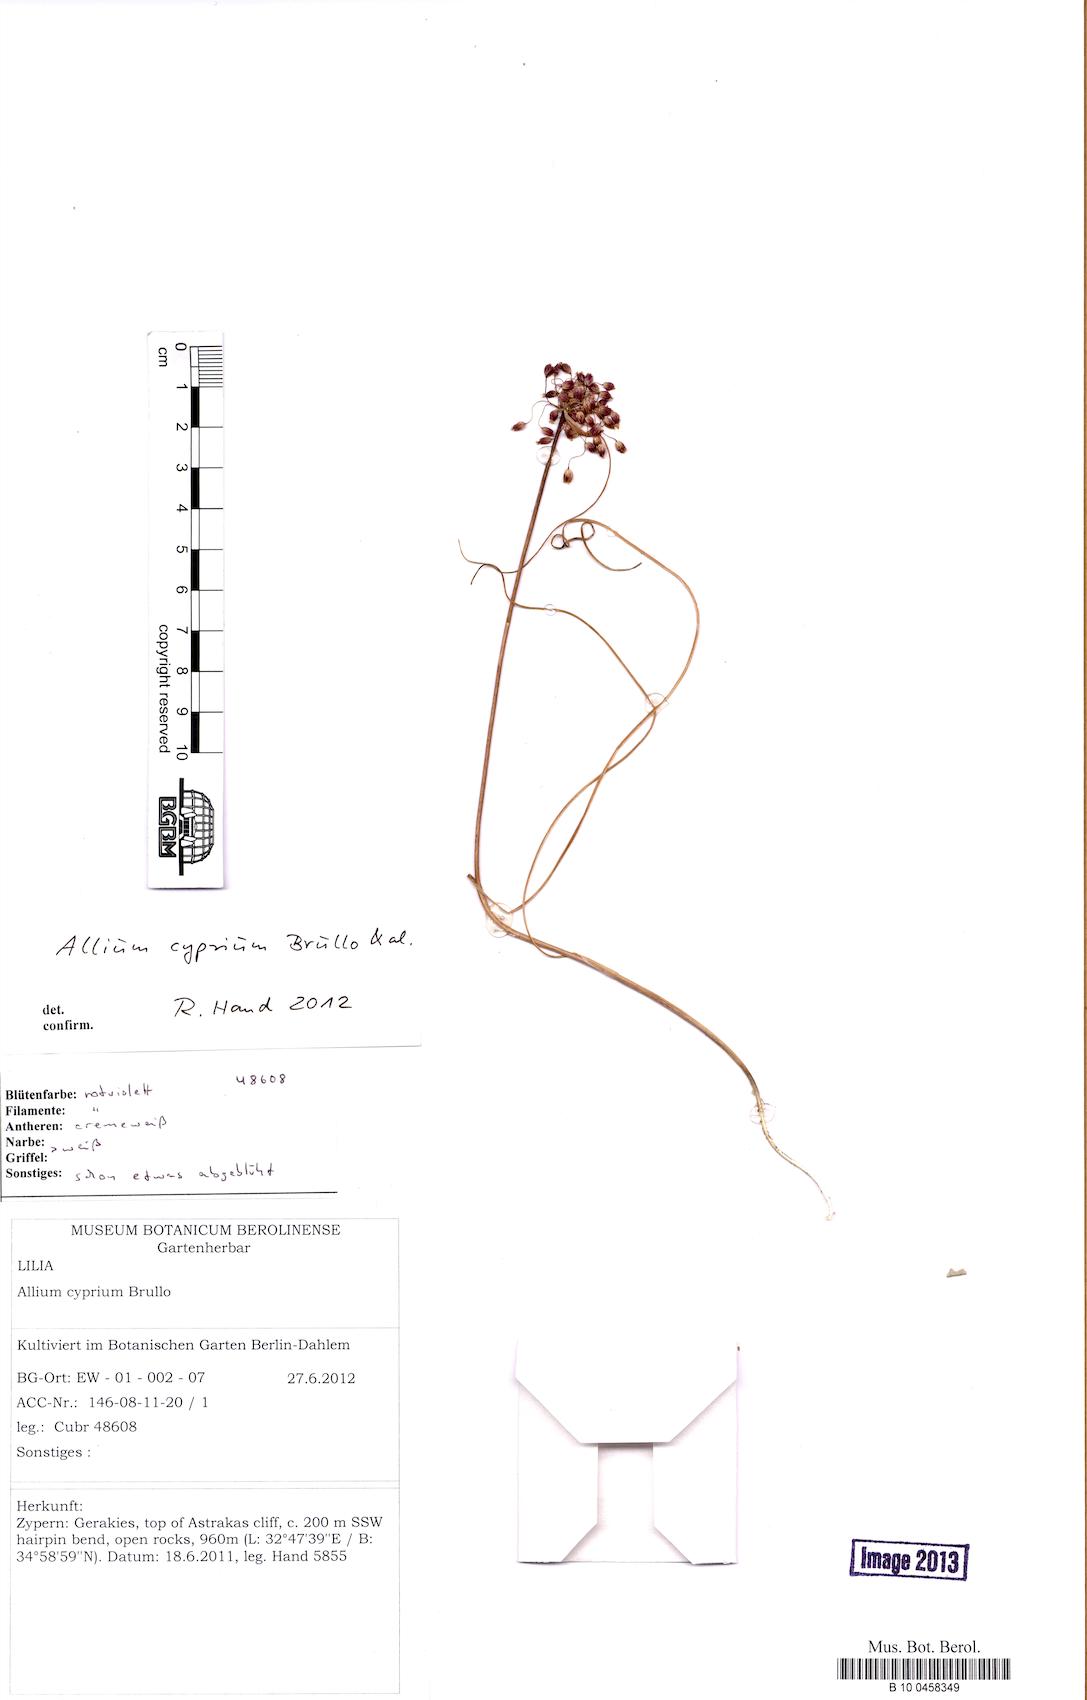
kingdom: Plantae
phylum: Tracheophyta
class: Liliopsida
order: Asparagales
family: Amaryllidaceae
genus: Allium
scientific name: Allium cyprium
